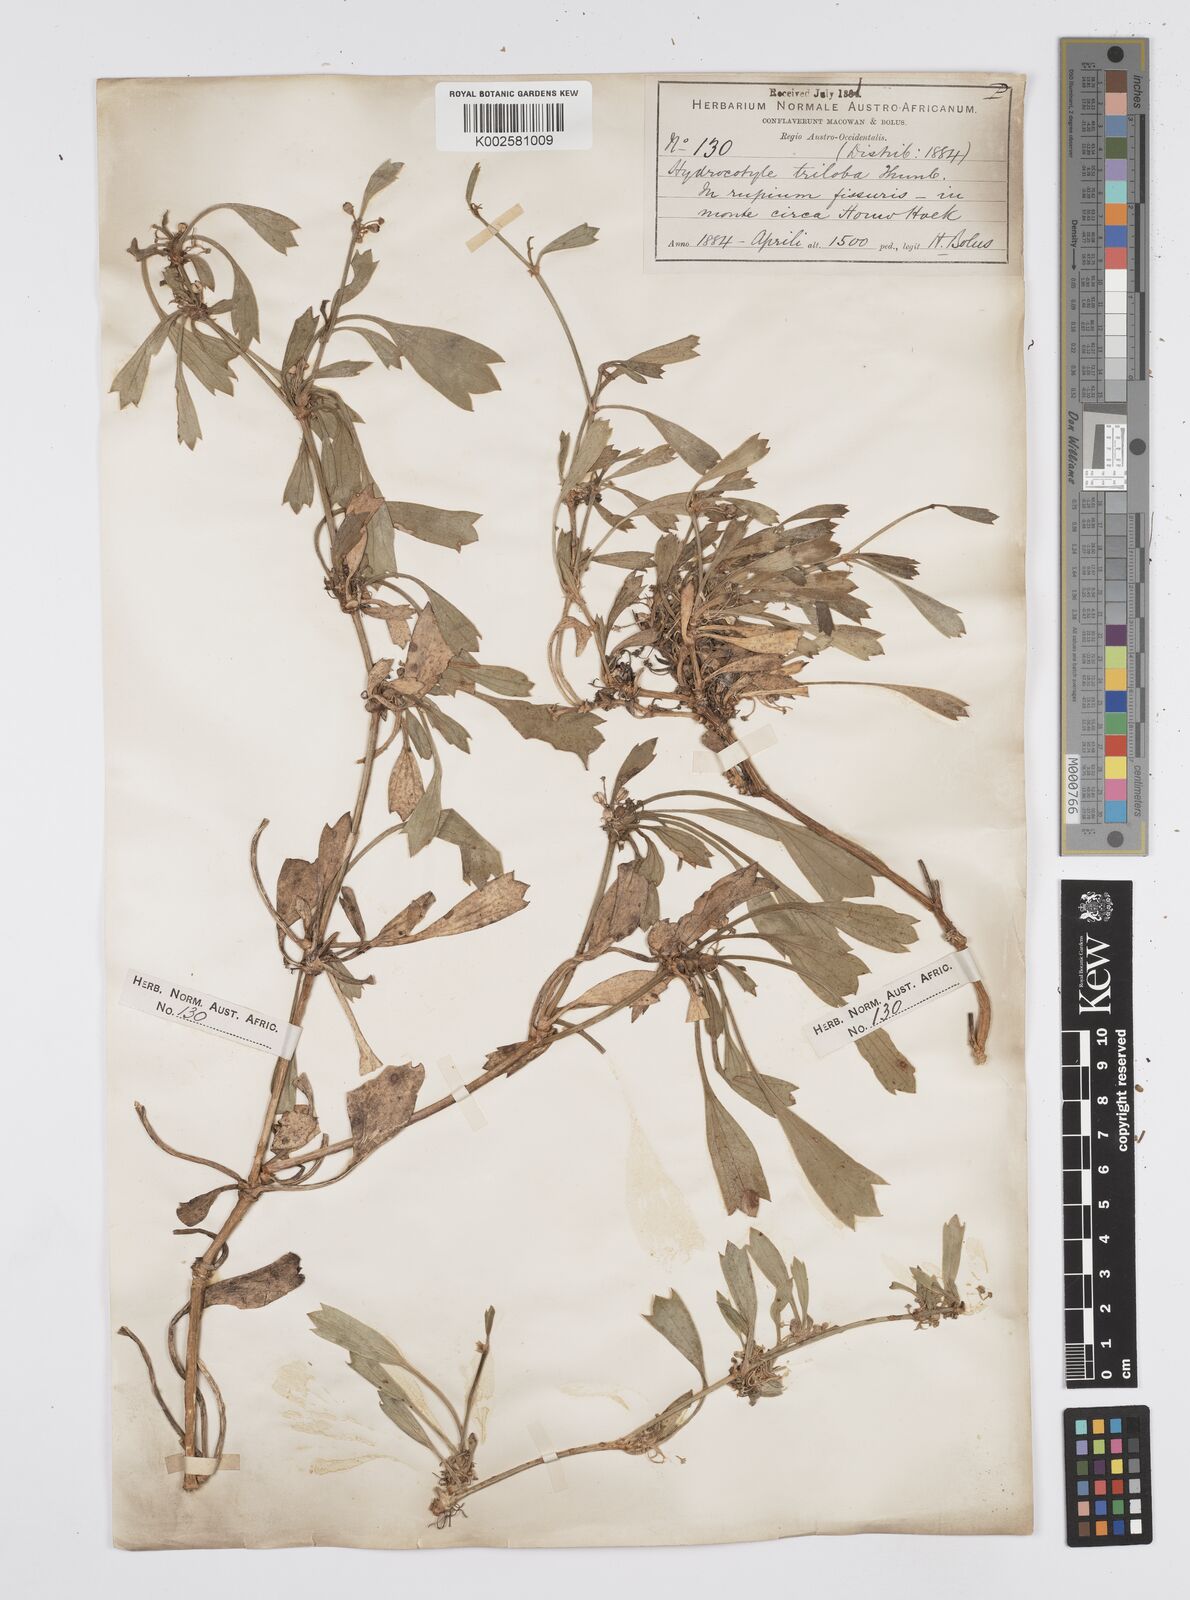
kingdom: Plantae
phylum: Tracheophyta
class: Magnoliopsida
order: Apiales
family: Apiaceae
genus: Centella
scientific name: Centella triloba
